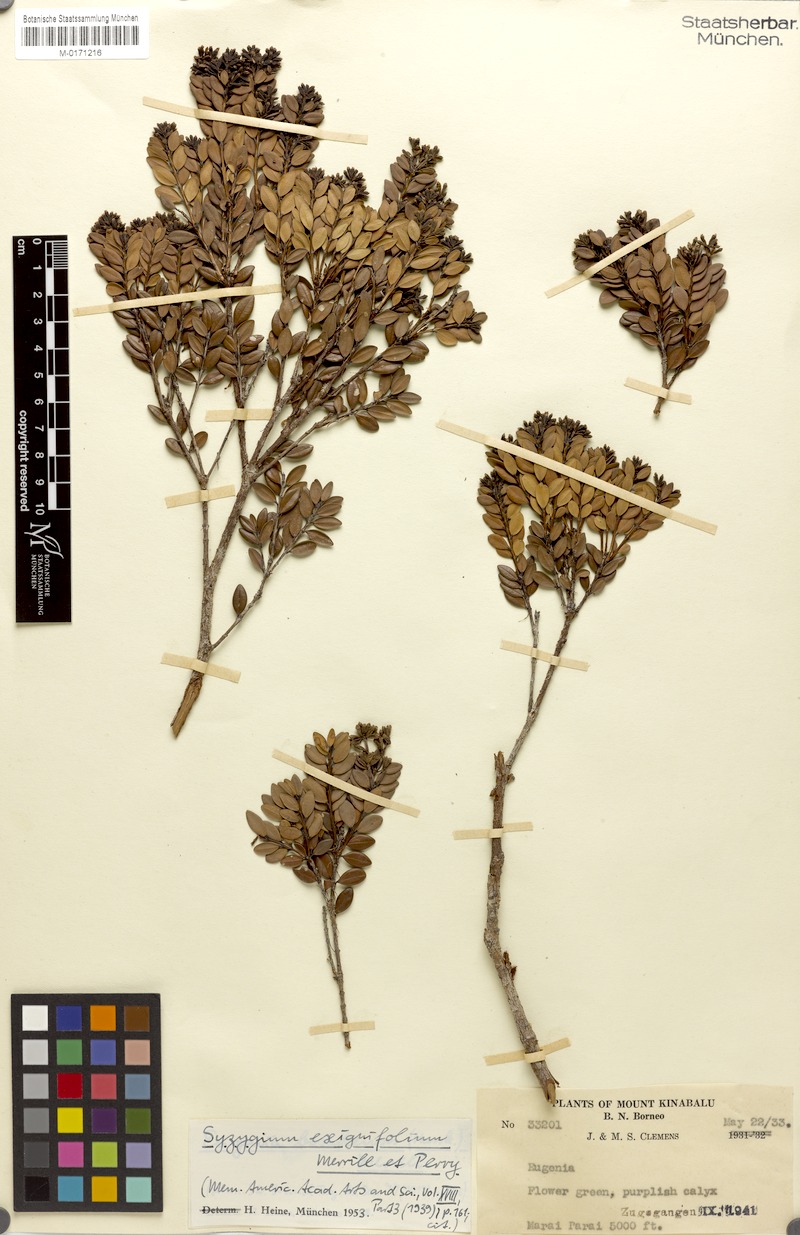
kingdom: Plantae
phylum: Tracheophyta
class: Magnoliopsida
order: Myrtales
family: Myrtaceae
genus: Syzygium
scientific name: Syzygium kinabaluense
